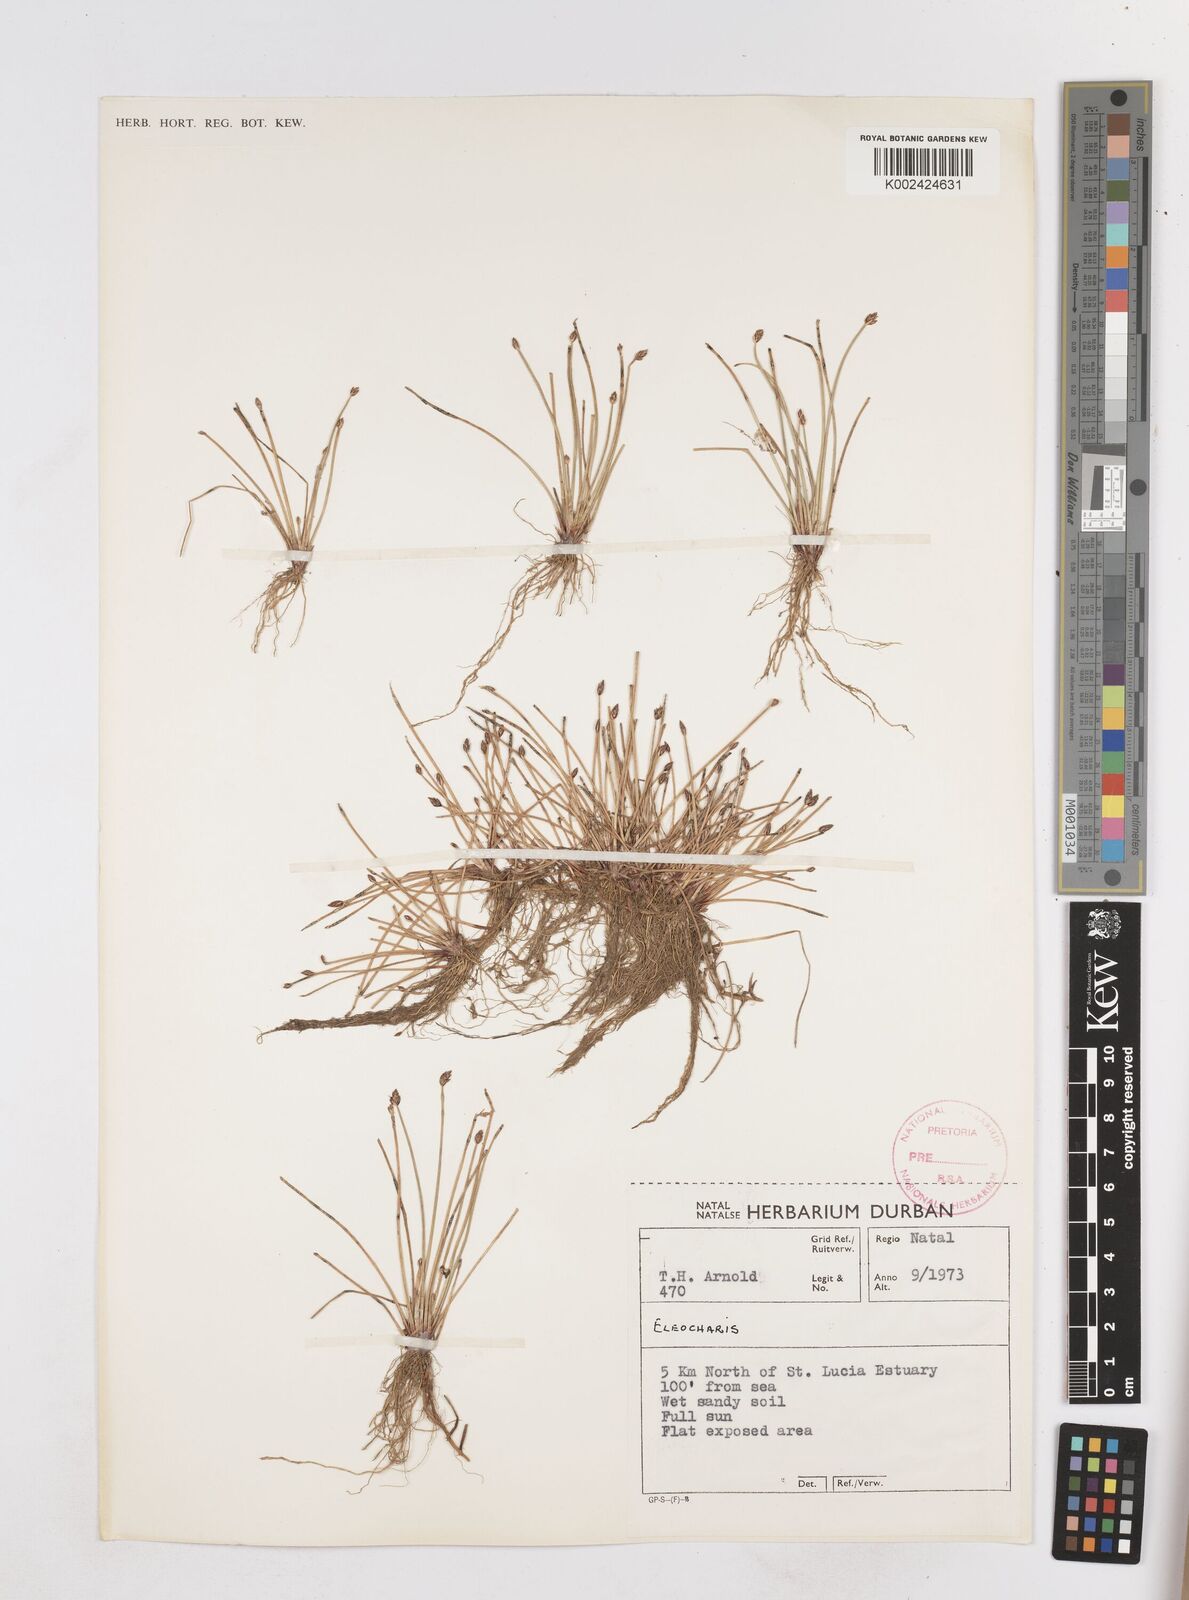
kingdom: Plantae
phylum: Tracheophyta
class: Liliopsida
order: Poales
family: Cyperaceae
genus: Eleocharis
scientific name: Eleocharis
